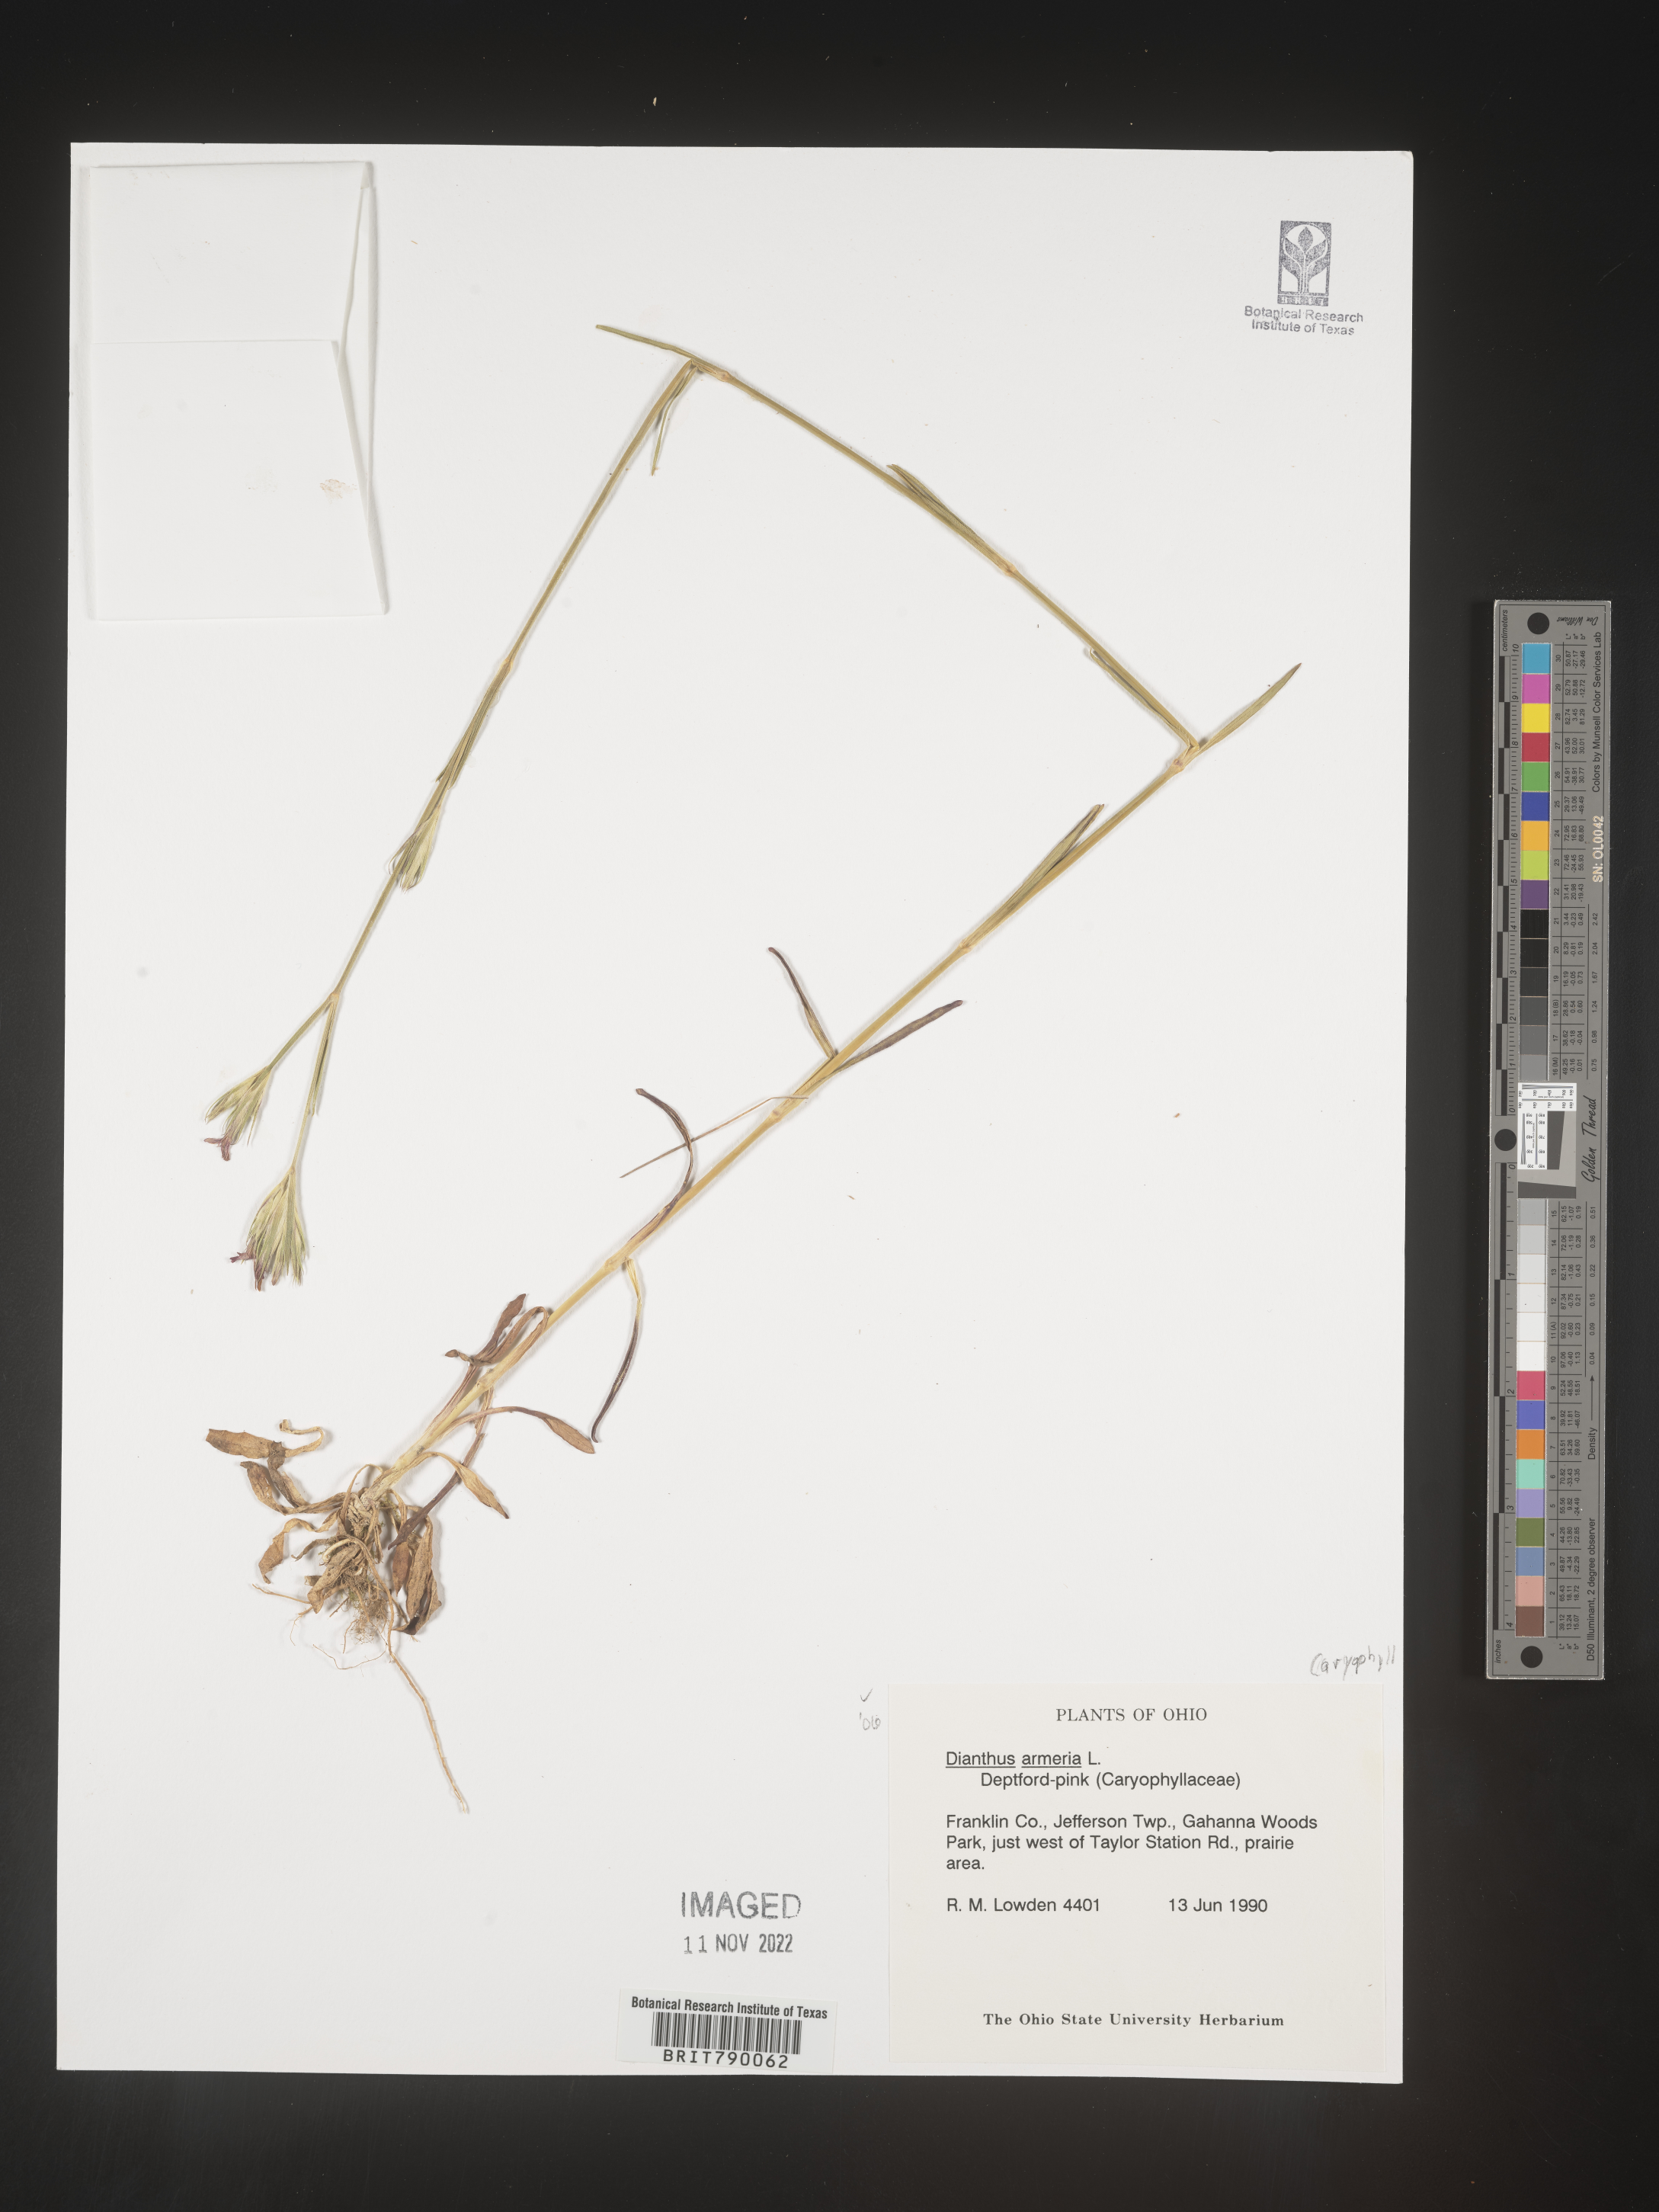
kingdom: Plantae
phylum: Tracheophyta
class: Magnoliopsida
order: Caryophyllales
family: Caryophyllaceae
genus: Dianthus
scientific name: Dianthus armeria
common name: Deptford pink
